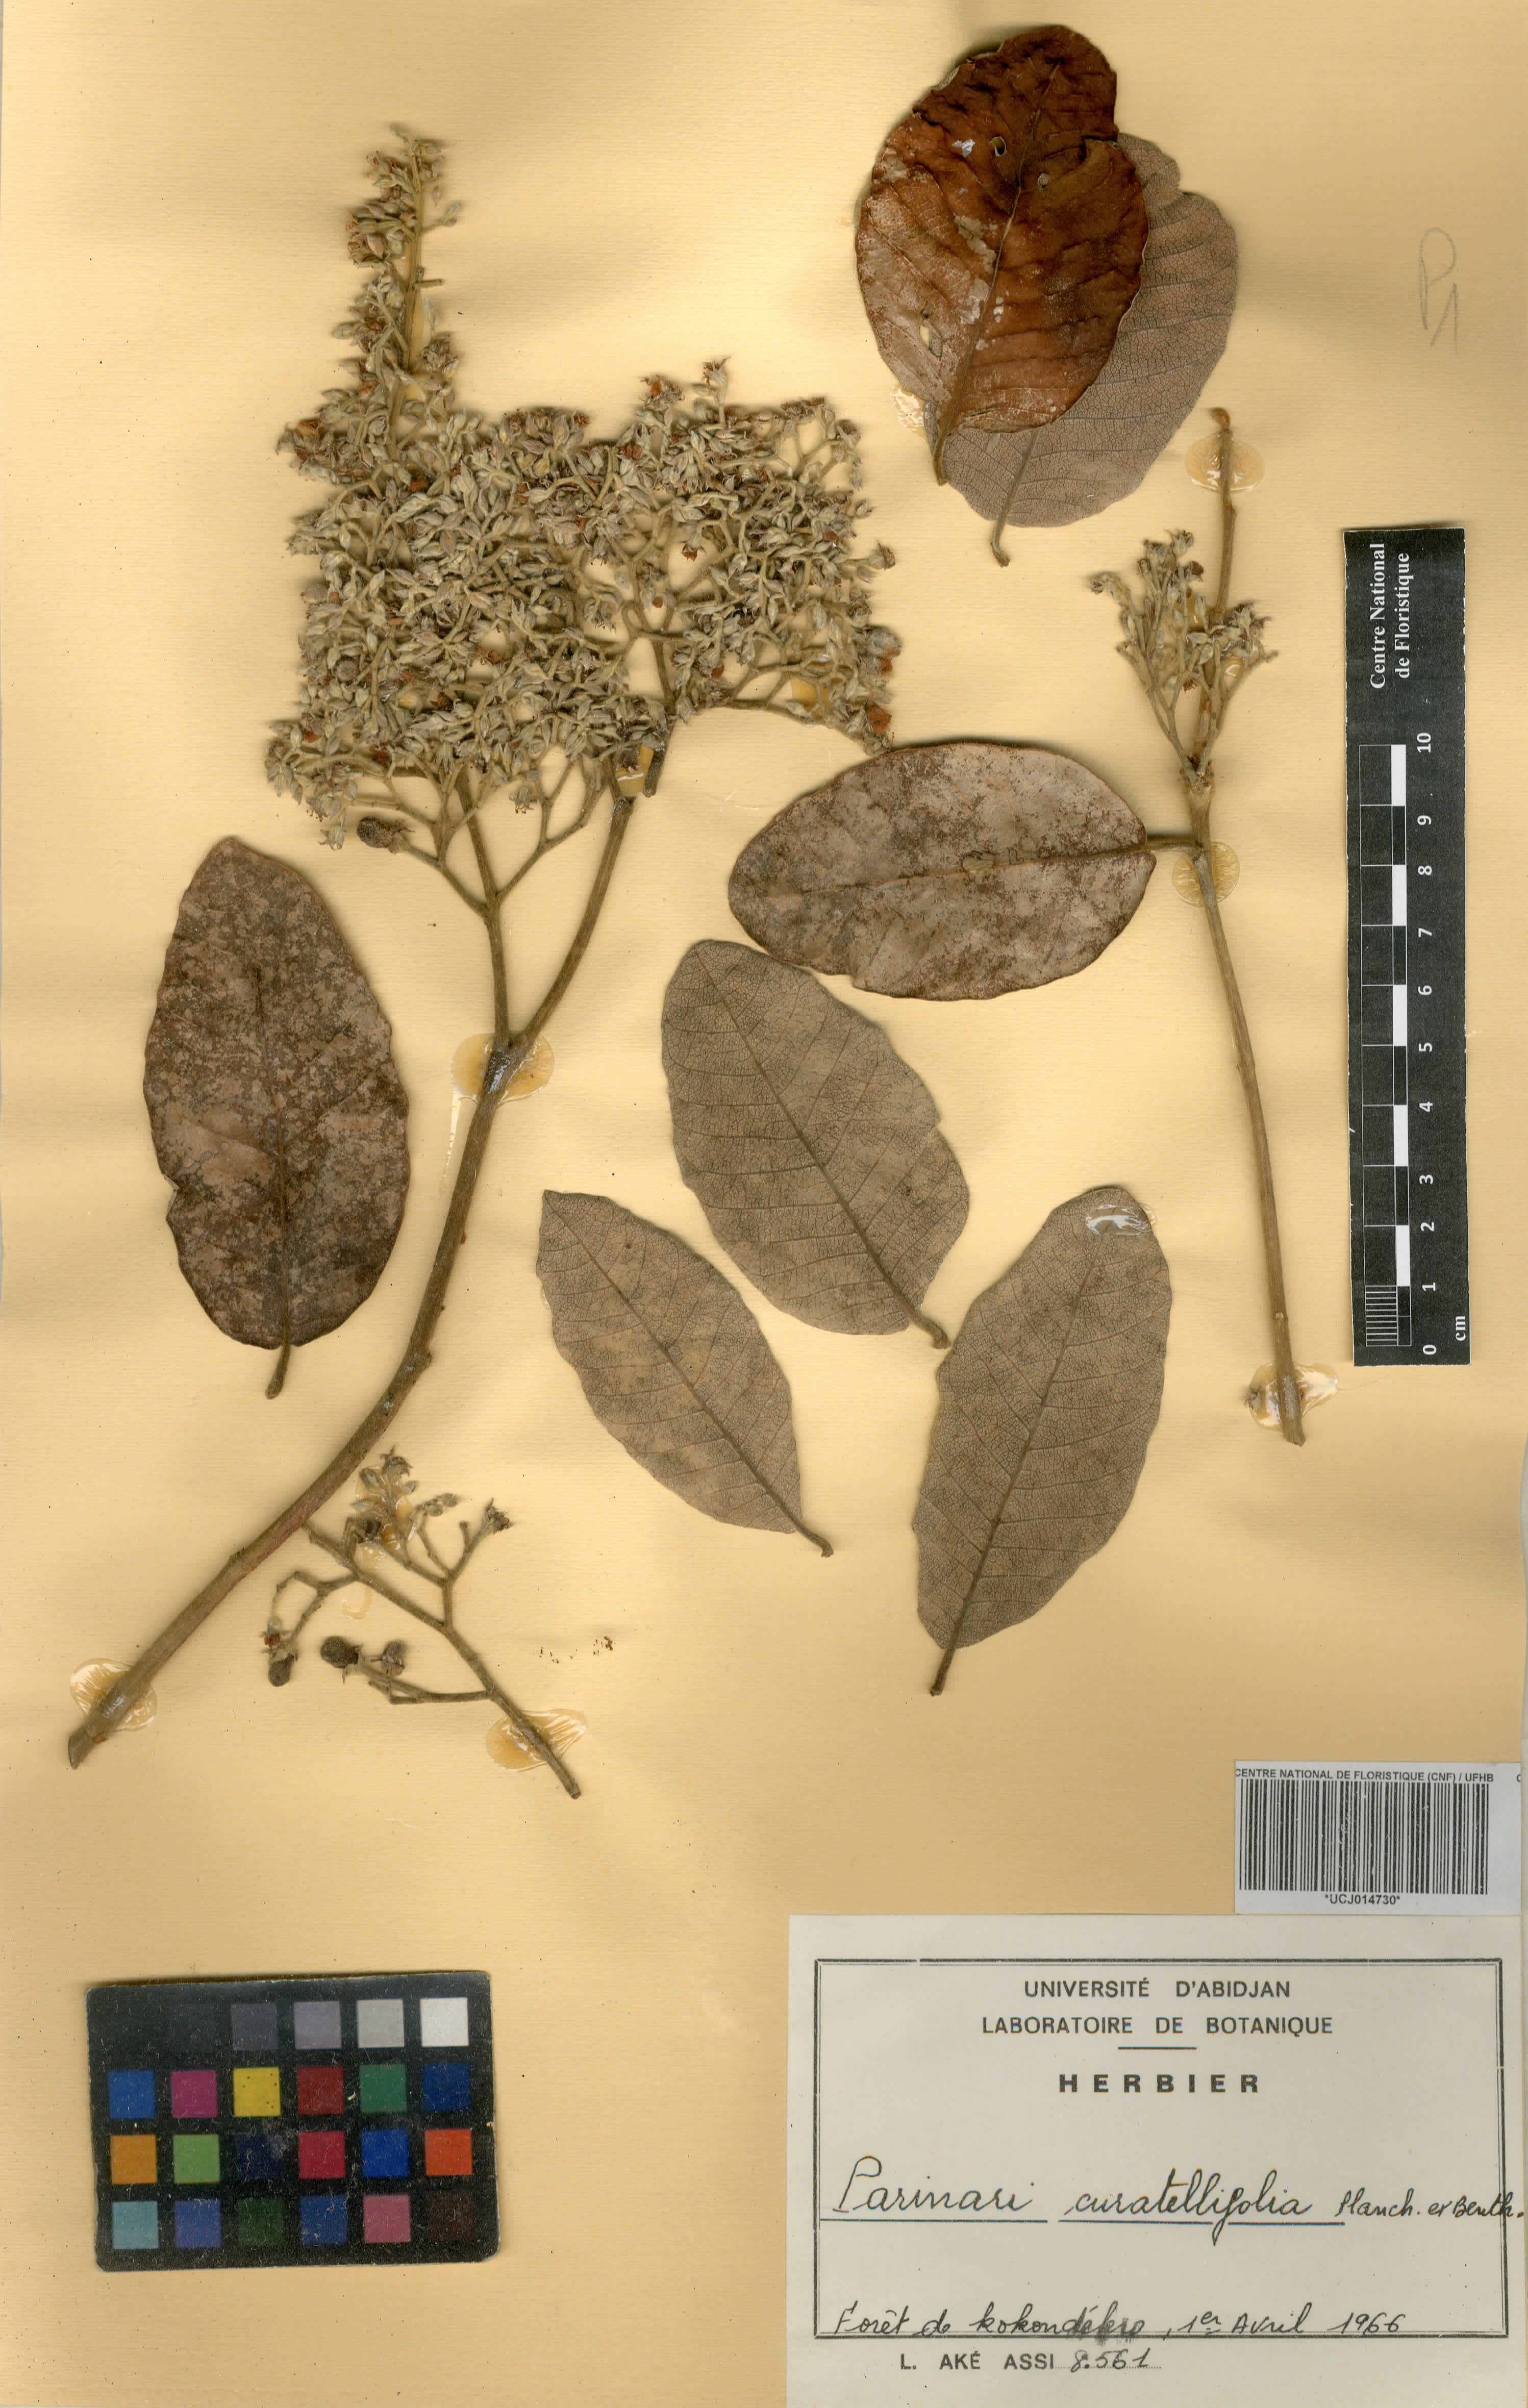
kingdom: Plantae
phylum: Tracheophyta
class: Magnoliopsida
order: Malpighiales
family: Chrysobalanaceae
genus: Parinari
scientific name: Parinari curatellifolia
